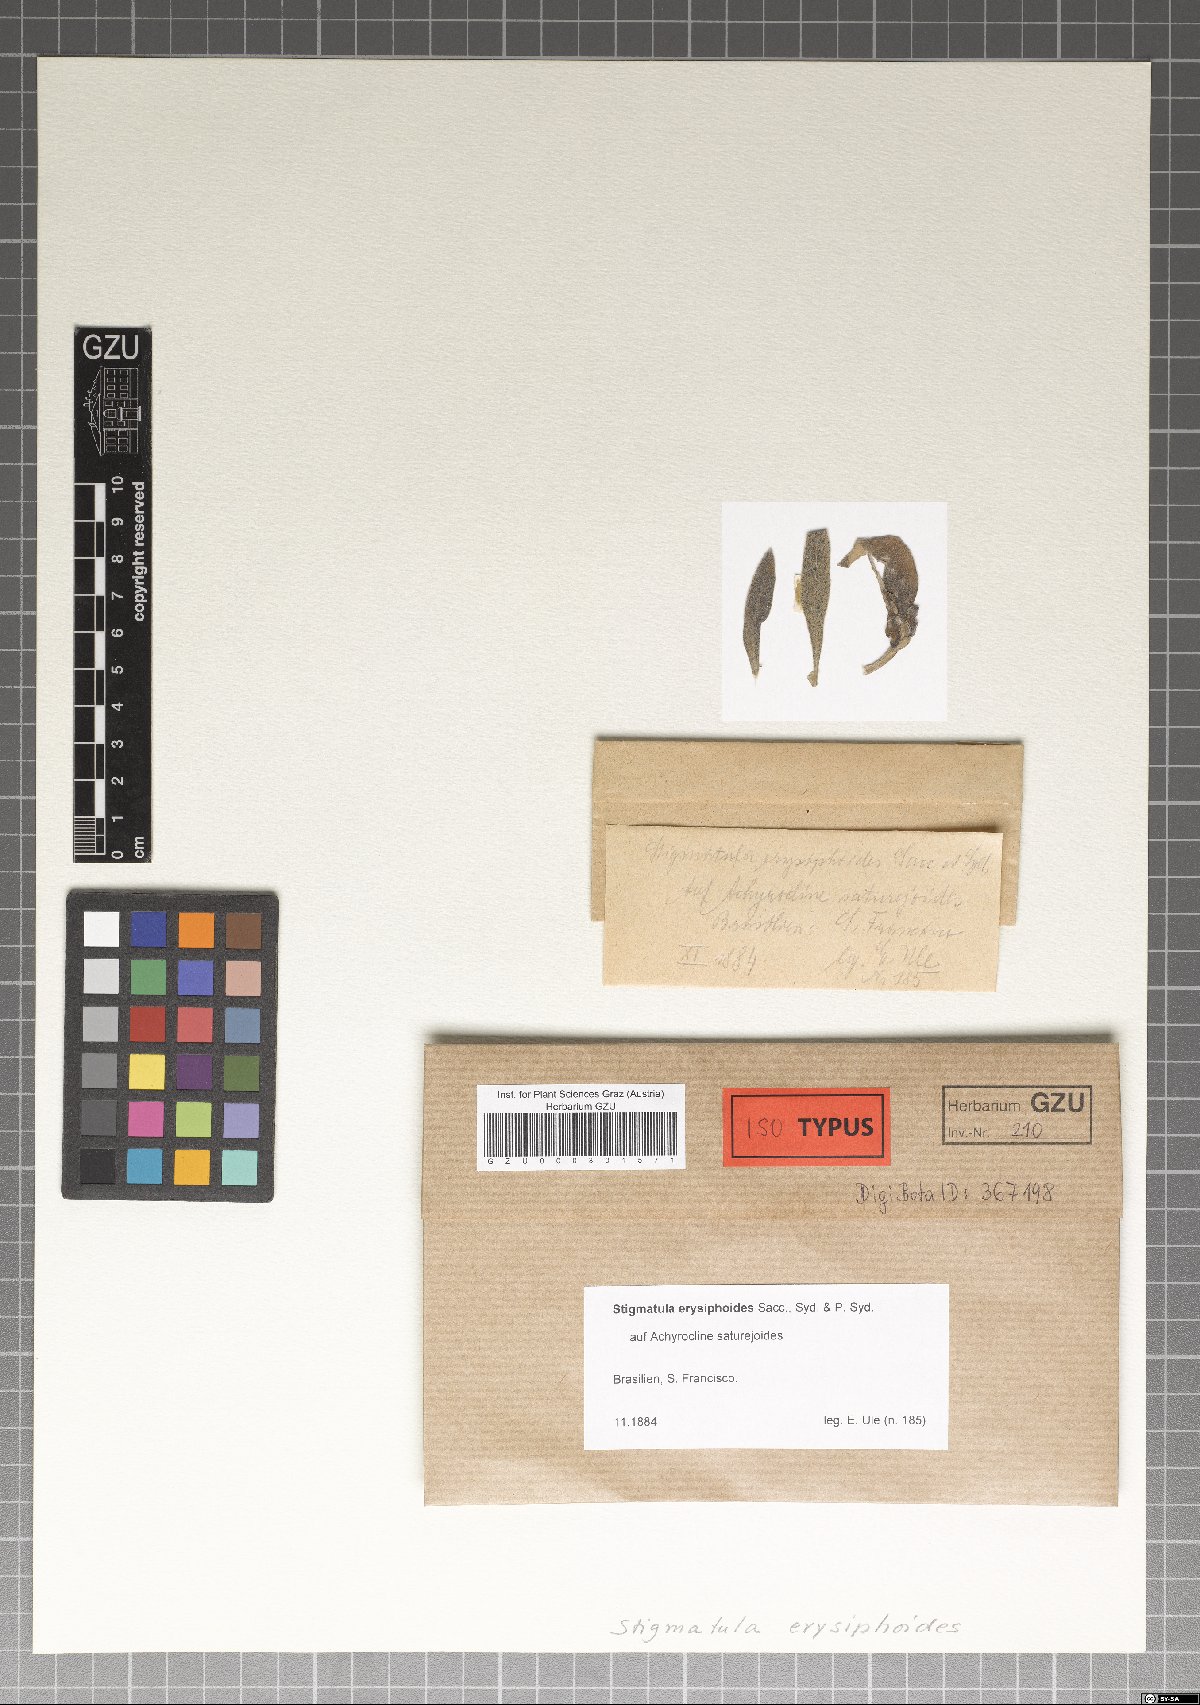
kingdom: Fungi
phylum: Ascomycota
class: Sordariomycetes
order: Phyllachorales
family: Phyllachoraceae
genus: Stigmatula
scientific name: Stigmatula erysiphoides
